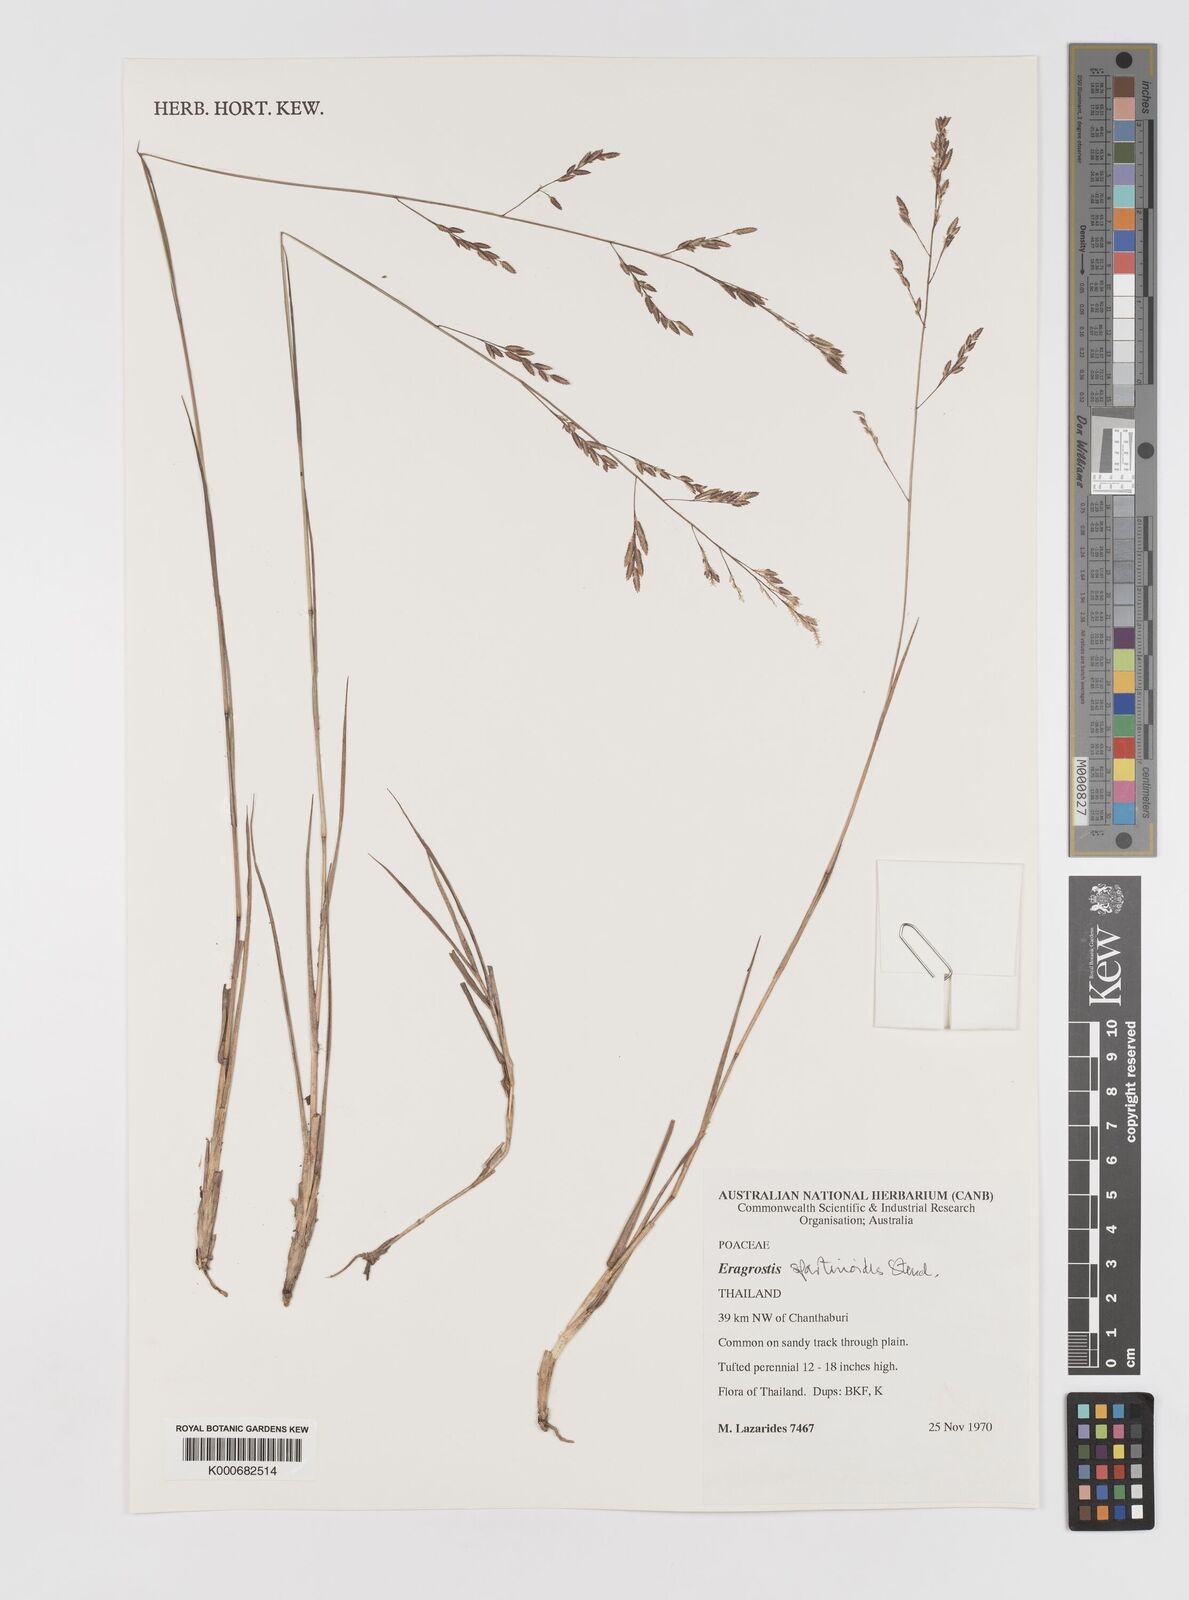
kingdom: Plantae
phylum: Tracheophyta
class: Liliopsida
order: Poales
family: Poaceae
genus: Eragrostis
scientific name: Eragrostis brownii
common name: Lovegrass
